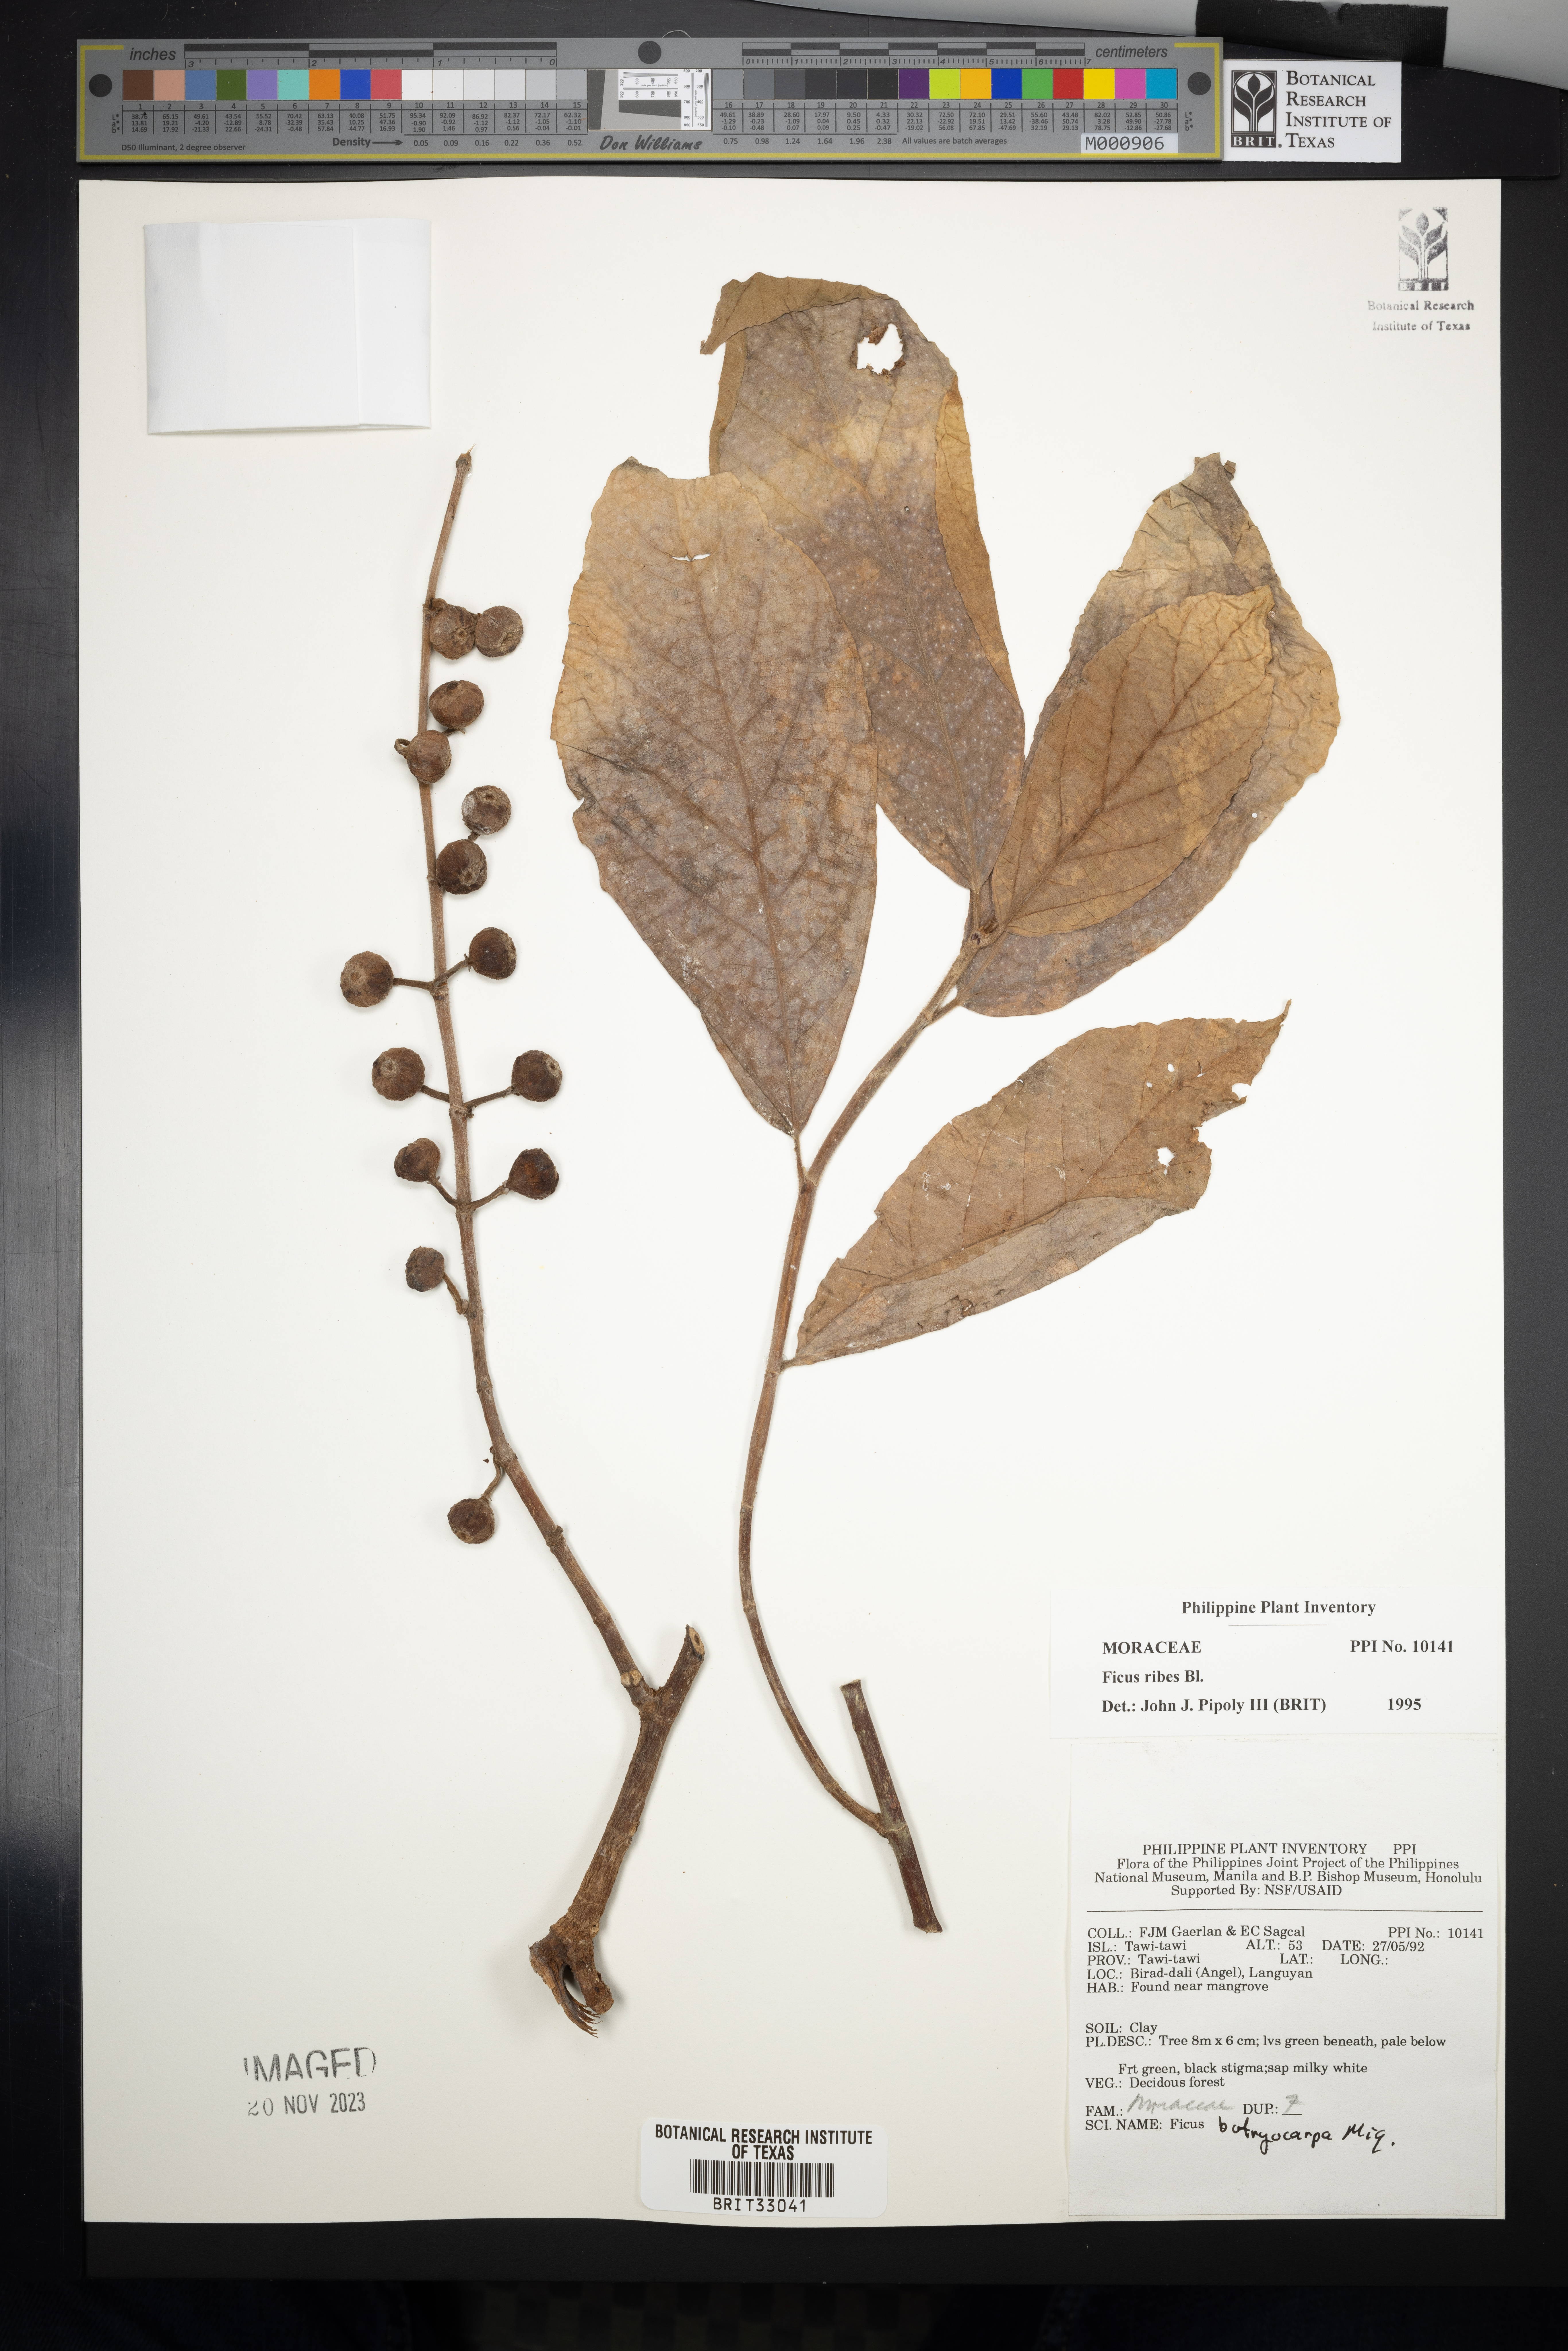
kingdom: Plantae
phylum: Tracheophyta
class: Magnoliopsida
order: Rosales
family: Moraceae
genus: Ficus
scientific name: Ficus ribes
